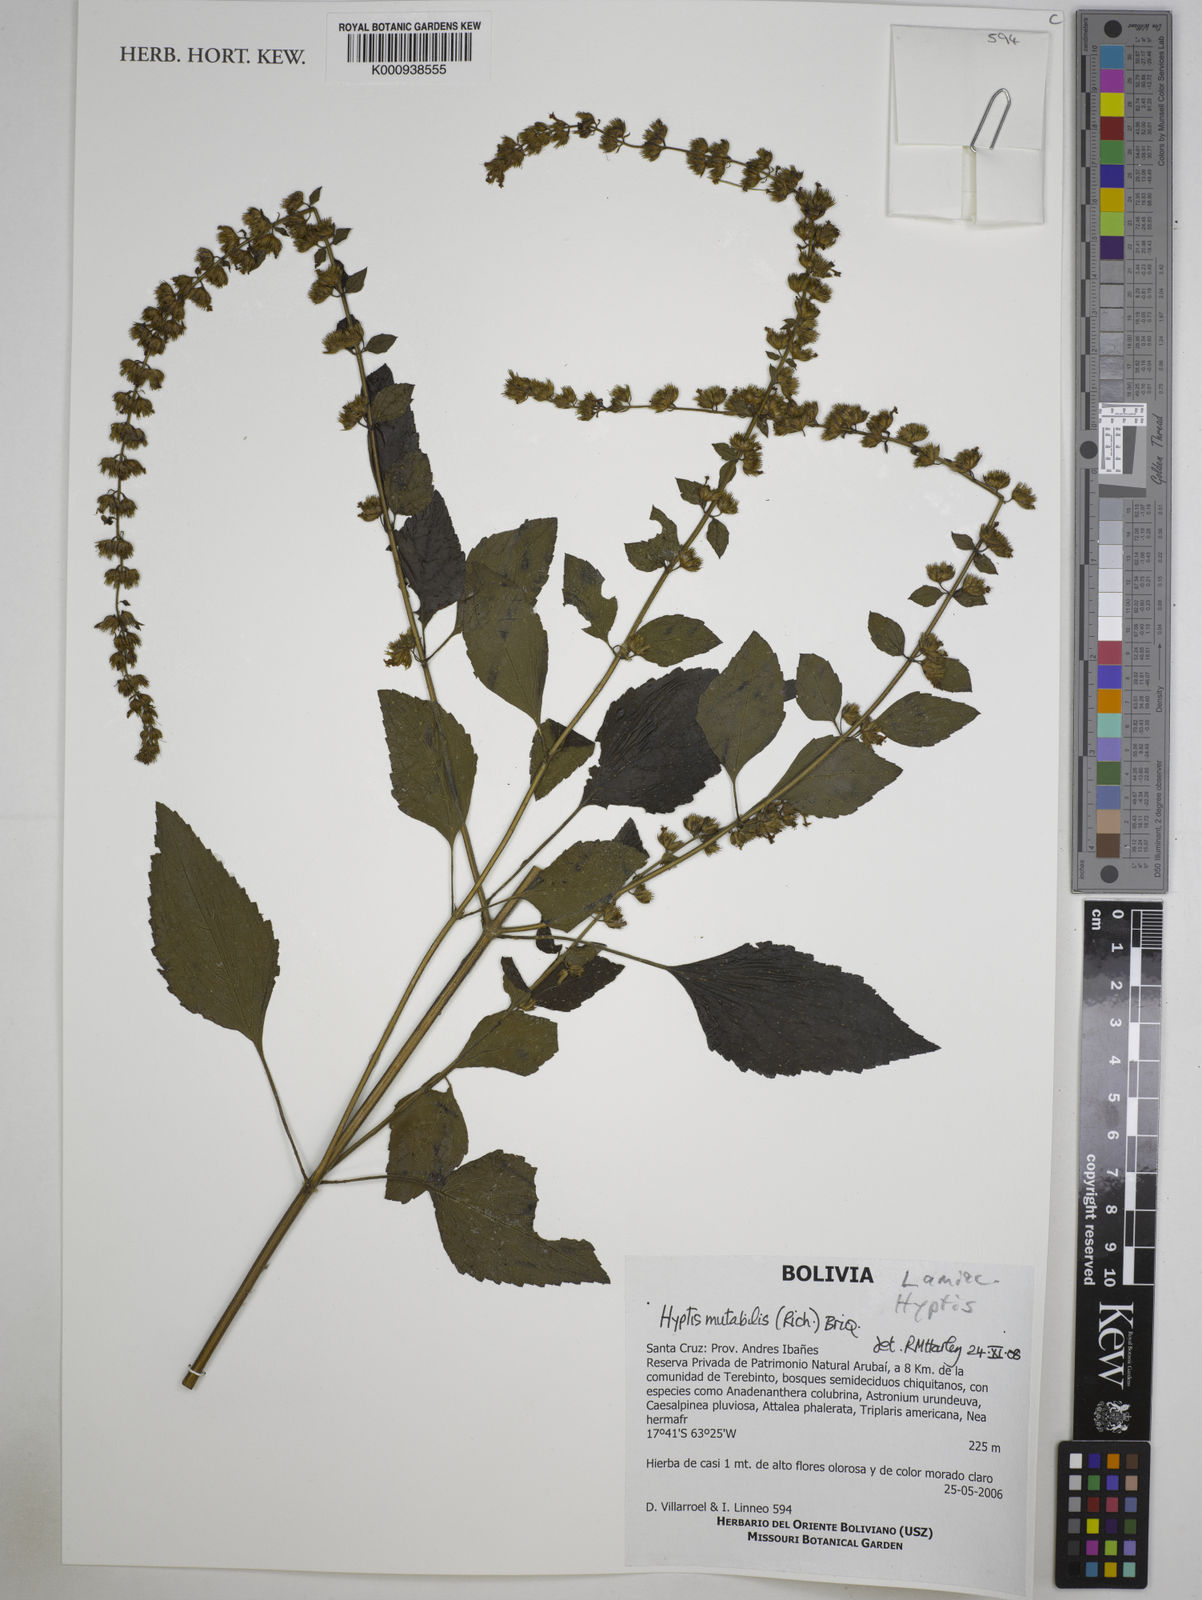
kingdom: Plantae
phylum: Tracheophyta
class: Magnoliopsida
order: Lamiales
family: Lamiaceae
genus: Cantinoa
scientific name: Cantinoa mutabilis
